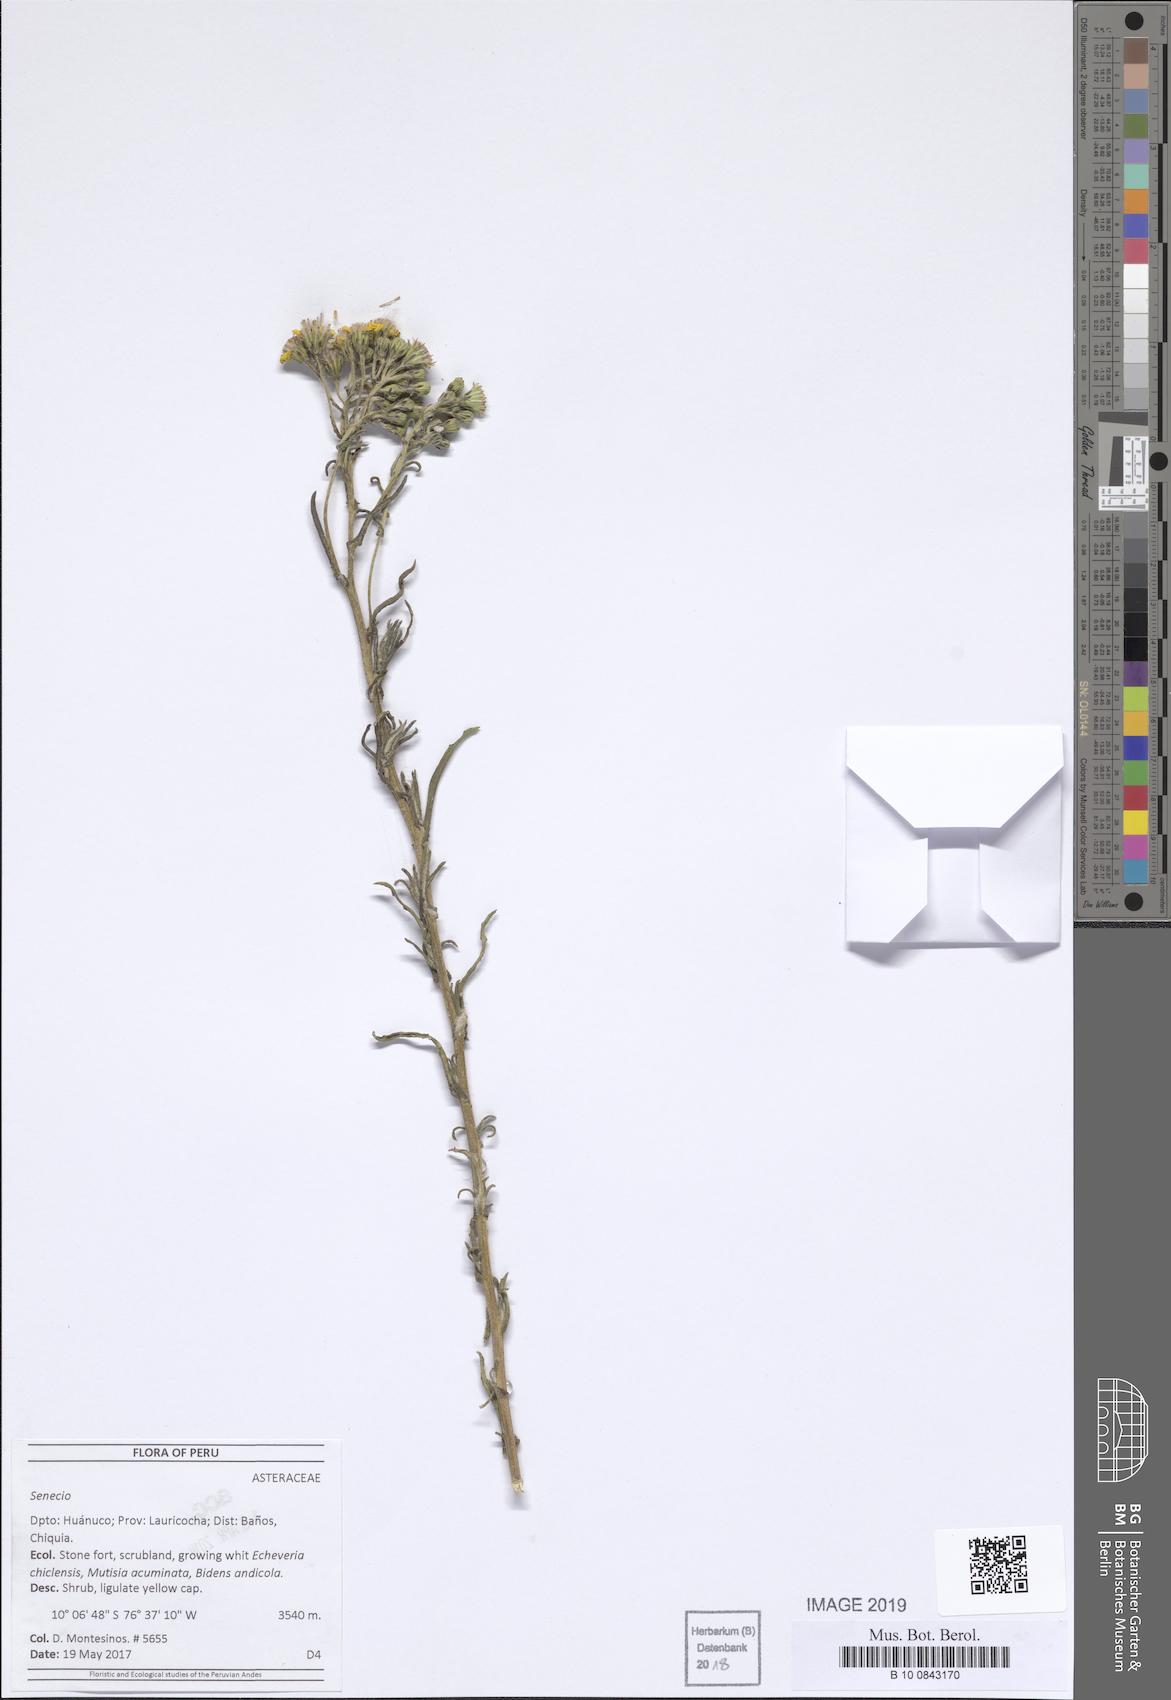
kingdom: Plantae
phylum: Tracheophyta
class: Magnoliopsida
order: Asterales
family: Asteraceae
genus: Senecio
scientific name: Senecio chiquianensis
